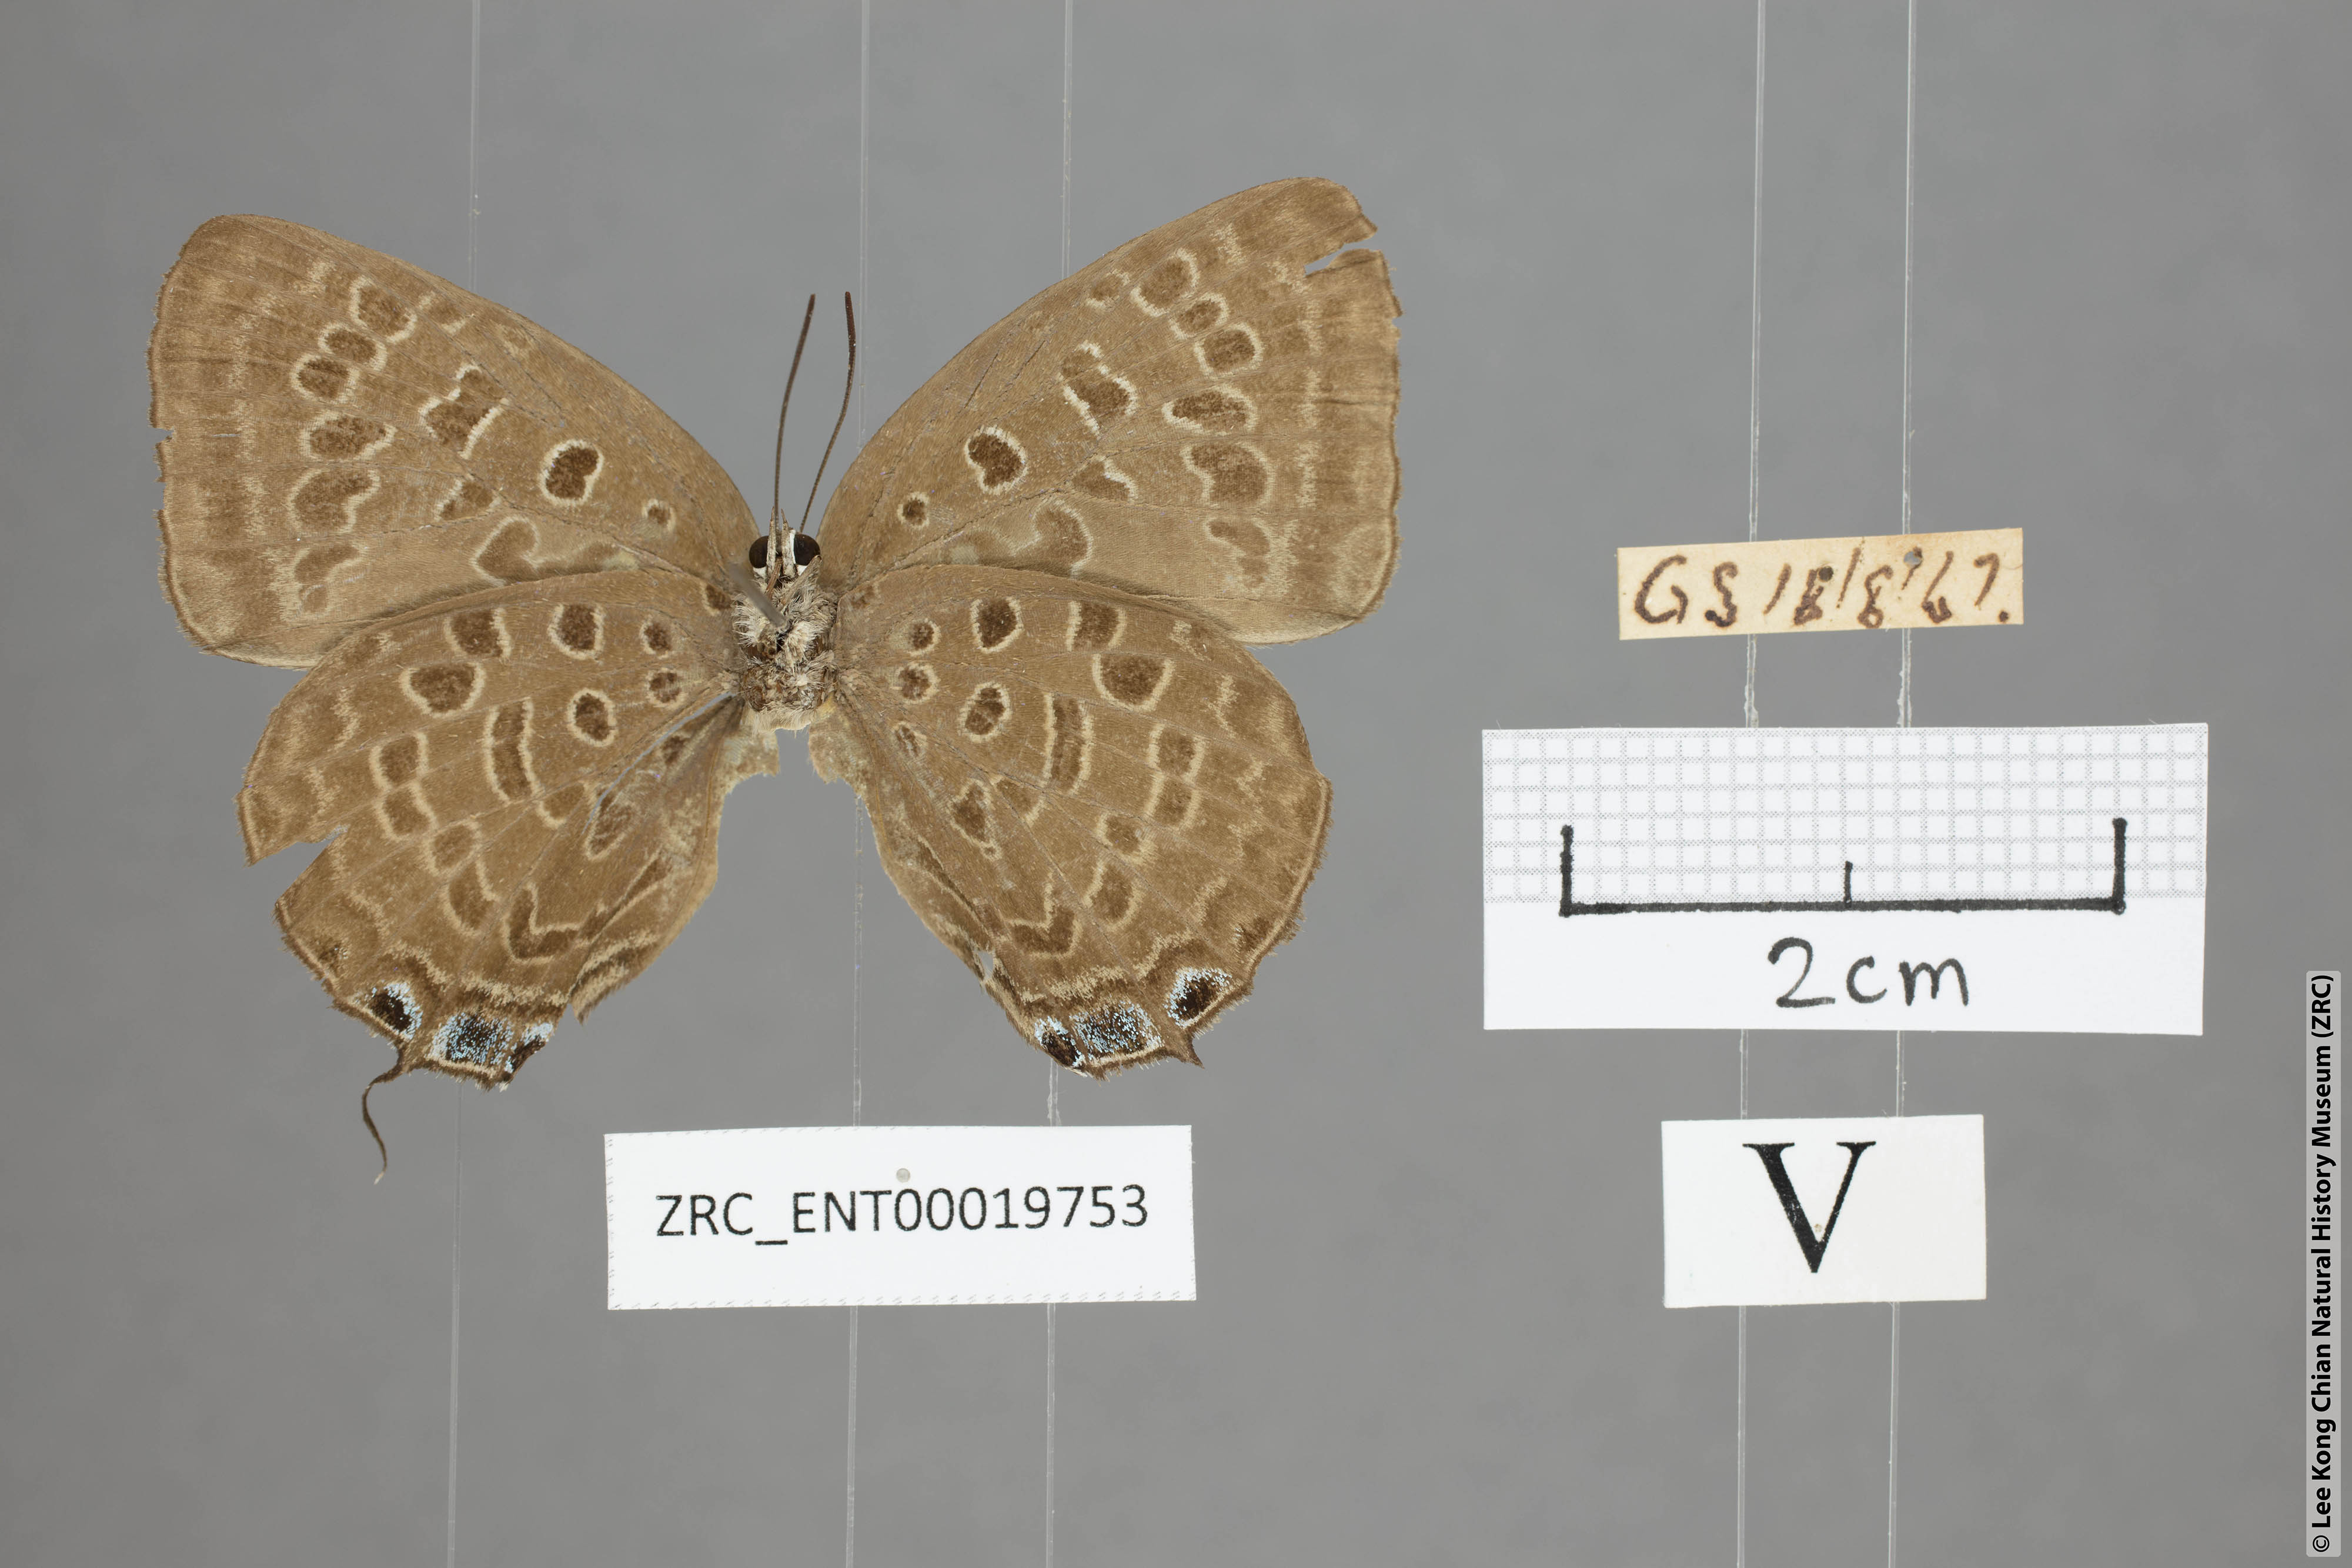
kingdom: Animalia
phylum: Arthropoda
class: Insecta
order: Lepidoptera
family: Lycaenidae
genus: Arhopala
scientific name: Arhopala opalina
